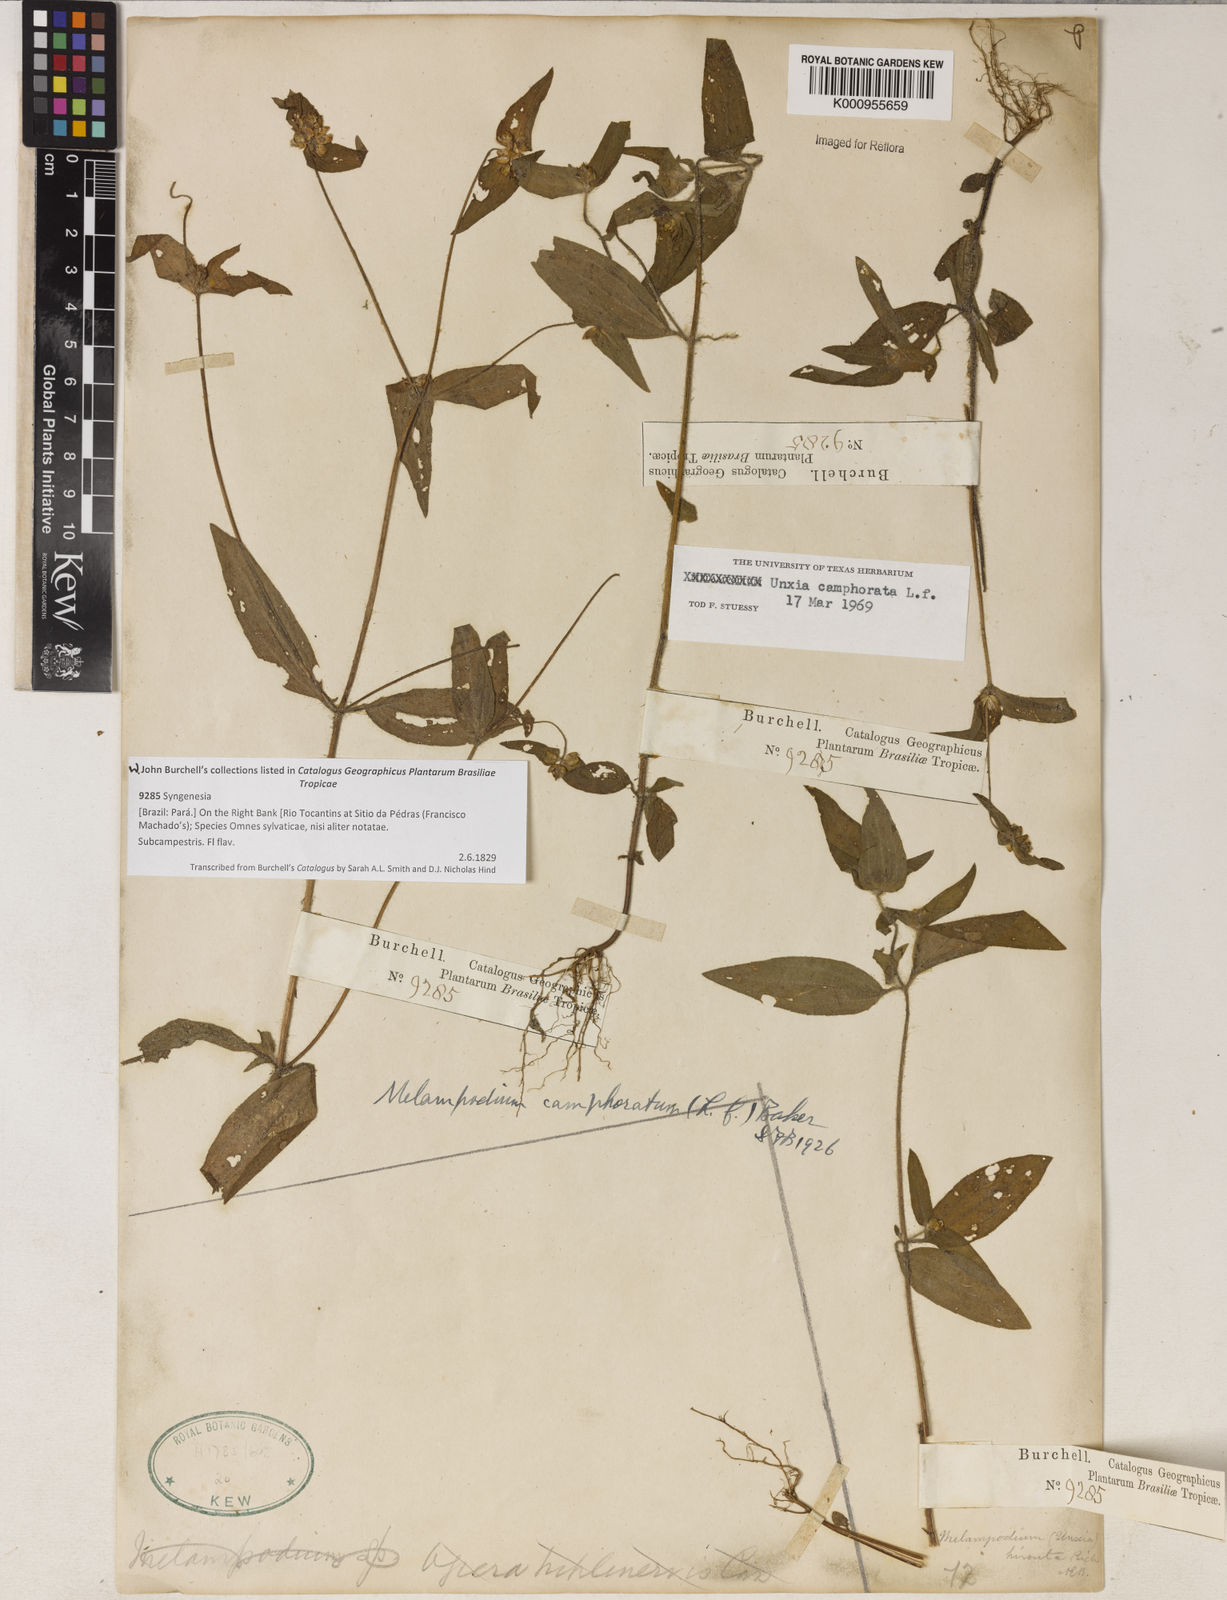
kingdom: Plantae
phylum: Tracheophyta
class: Magnoliopsida
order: Asterales
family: Asteraceae
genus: Unxia
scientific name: Unxia camphorata
